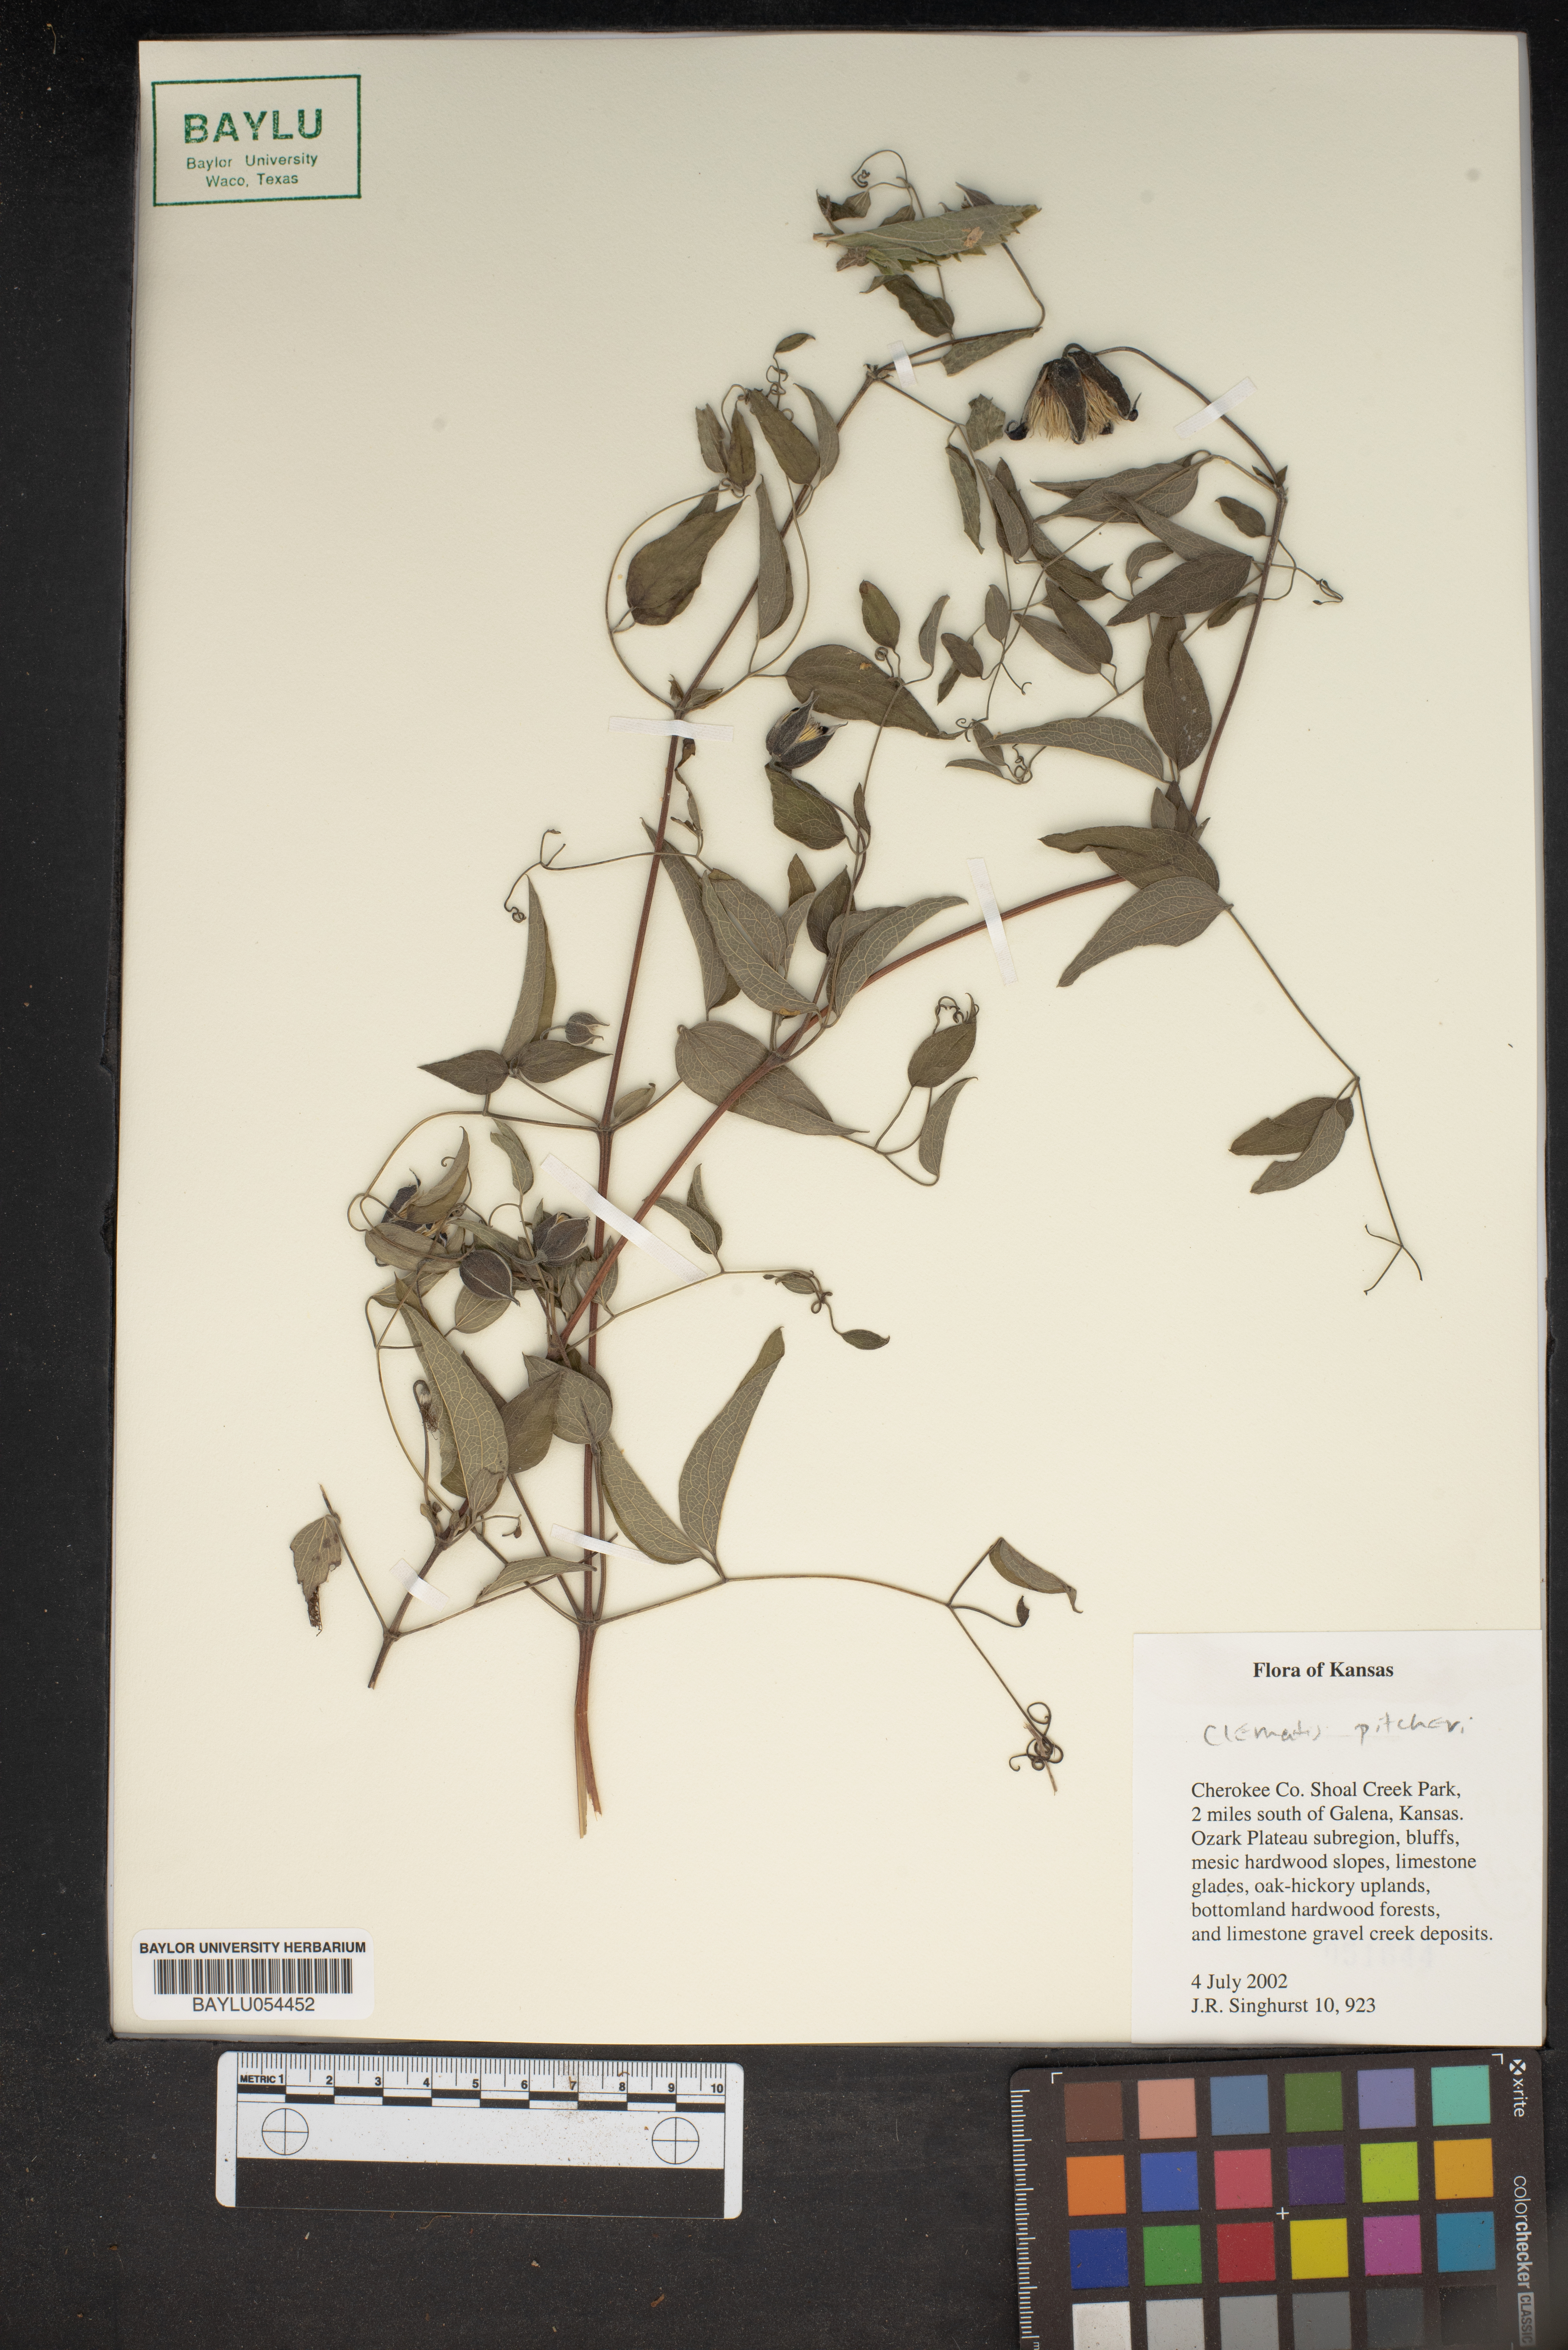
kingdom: Plantae
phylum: Tracheophyta
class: Magnoliopsida
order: Ranunculales
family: Ranunculaceae
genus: Clematis
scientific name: Clematis pitcheri
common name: Bellflower clematis
